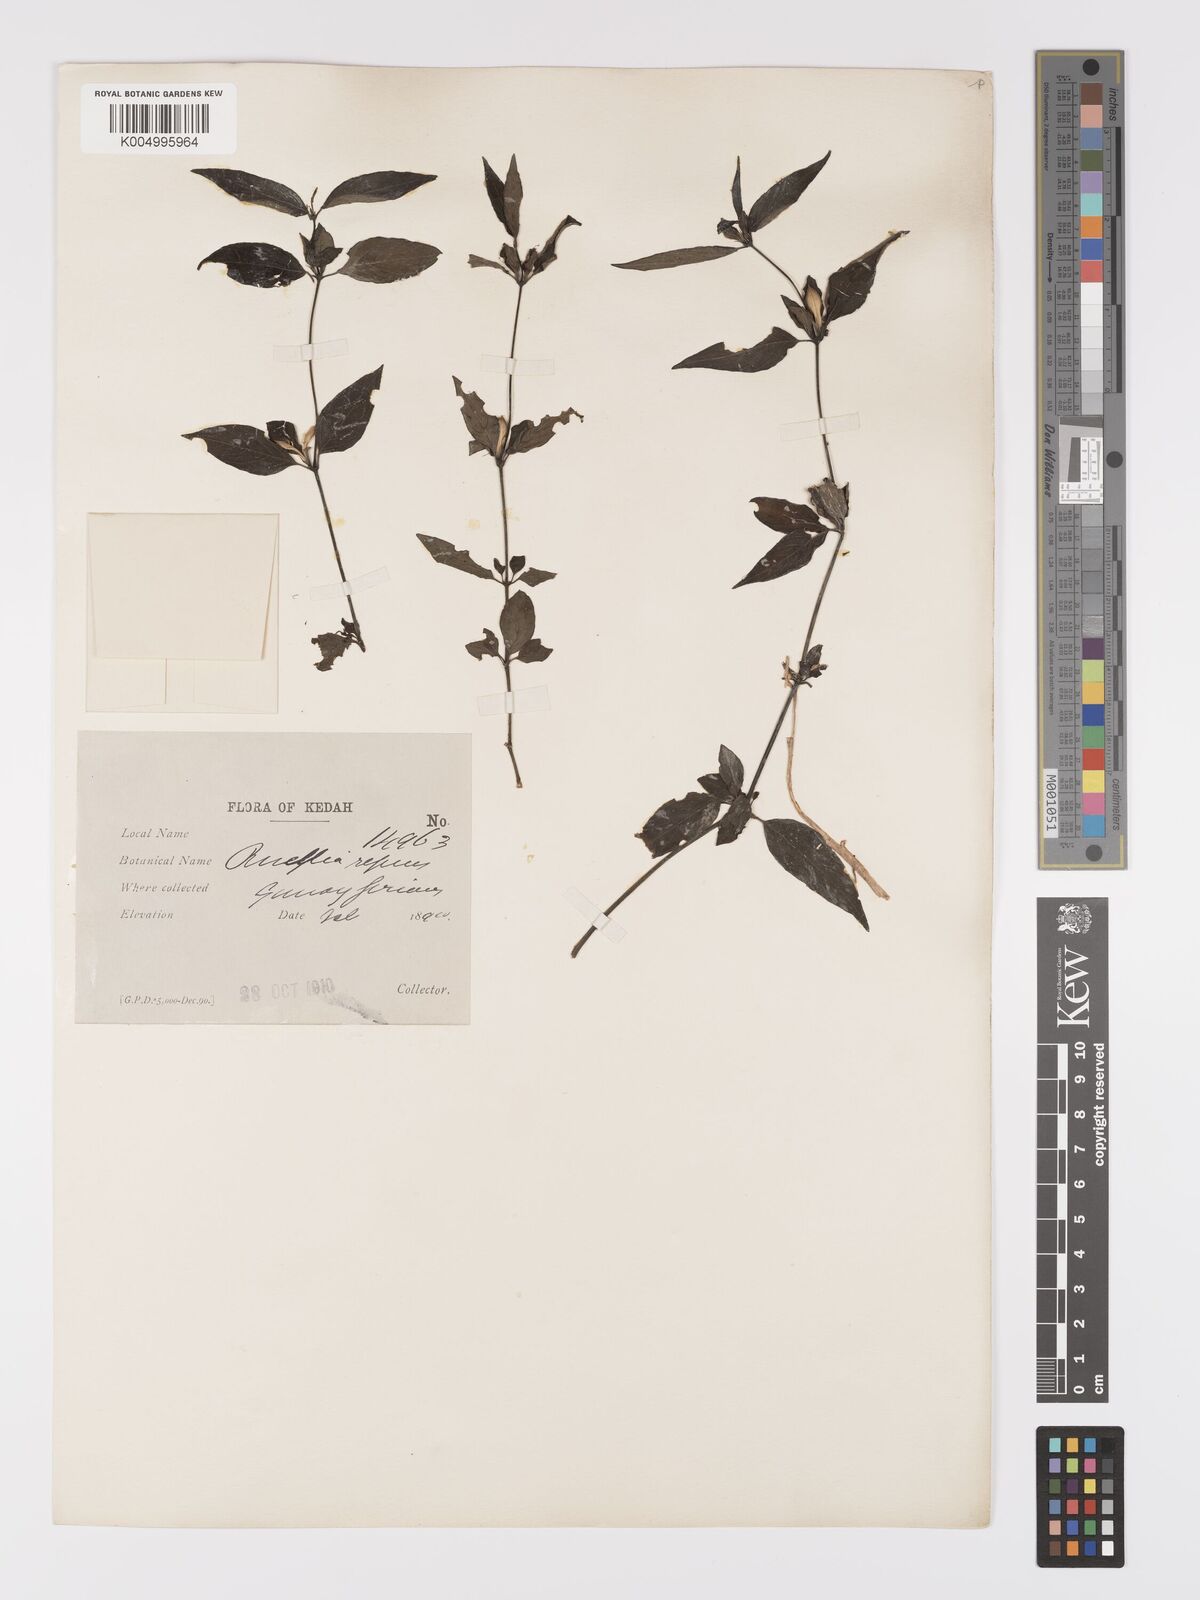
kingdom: Plantae
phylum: Tracheophyta
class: Magnoliopsida
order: Lamiales
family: Acanthaceae
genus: Ruellia
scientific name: Ruellia
